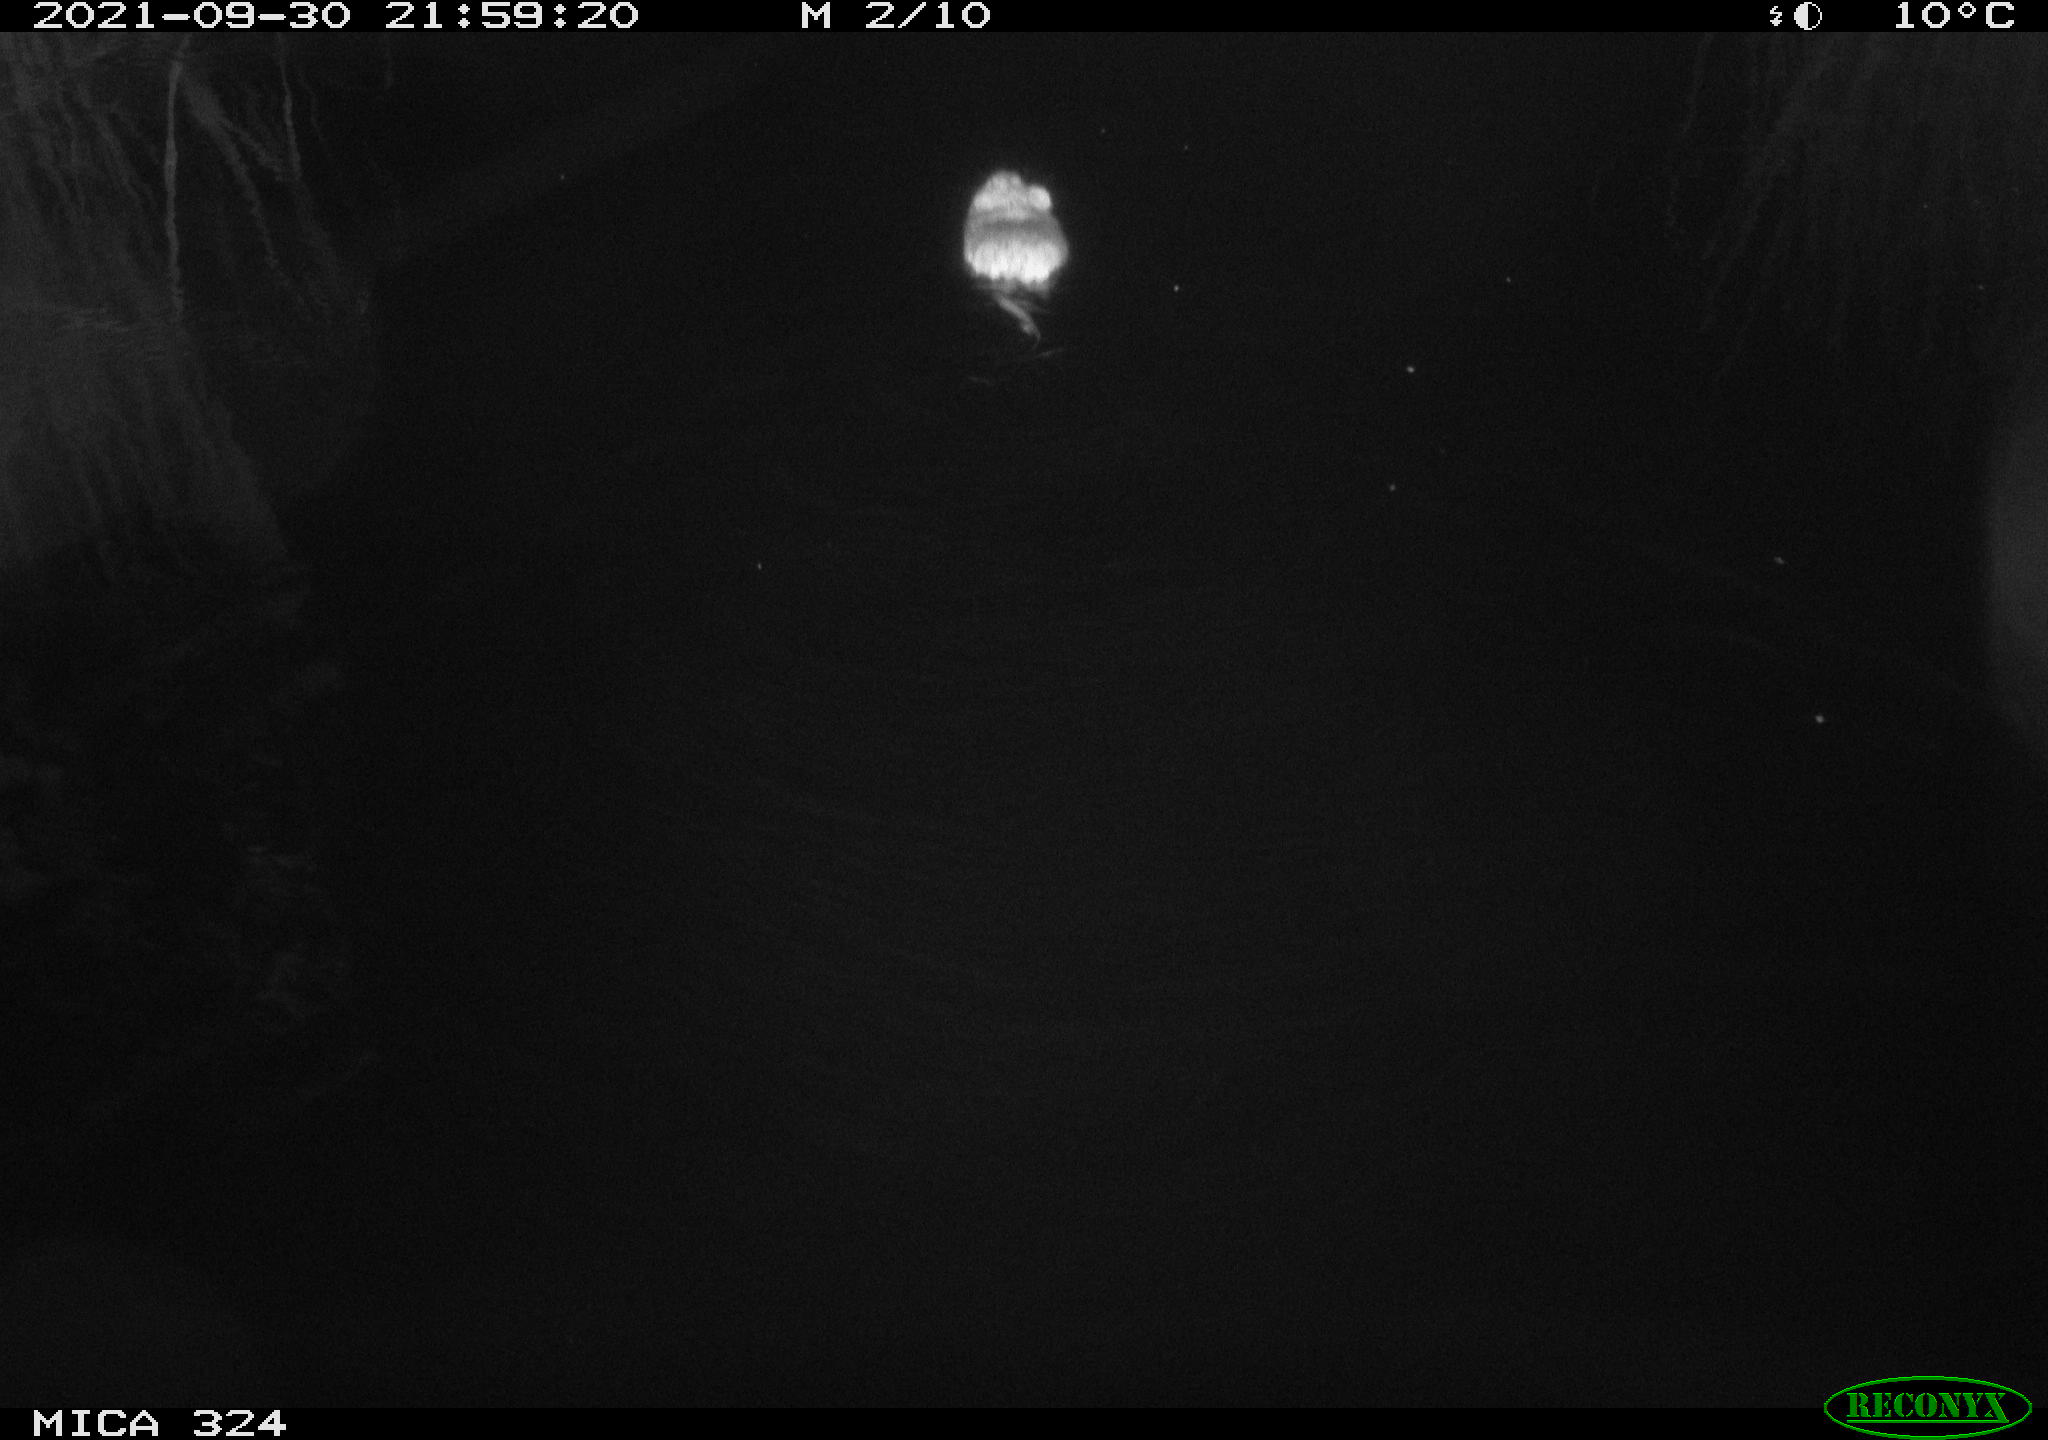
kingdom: Animalia
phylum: Chordata
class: Mammalia
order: Rodentia
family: Cricetidae
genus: Ondatra
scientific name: Ondatra zibethicus
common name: Muskrat
